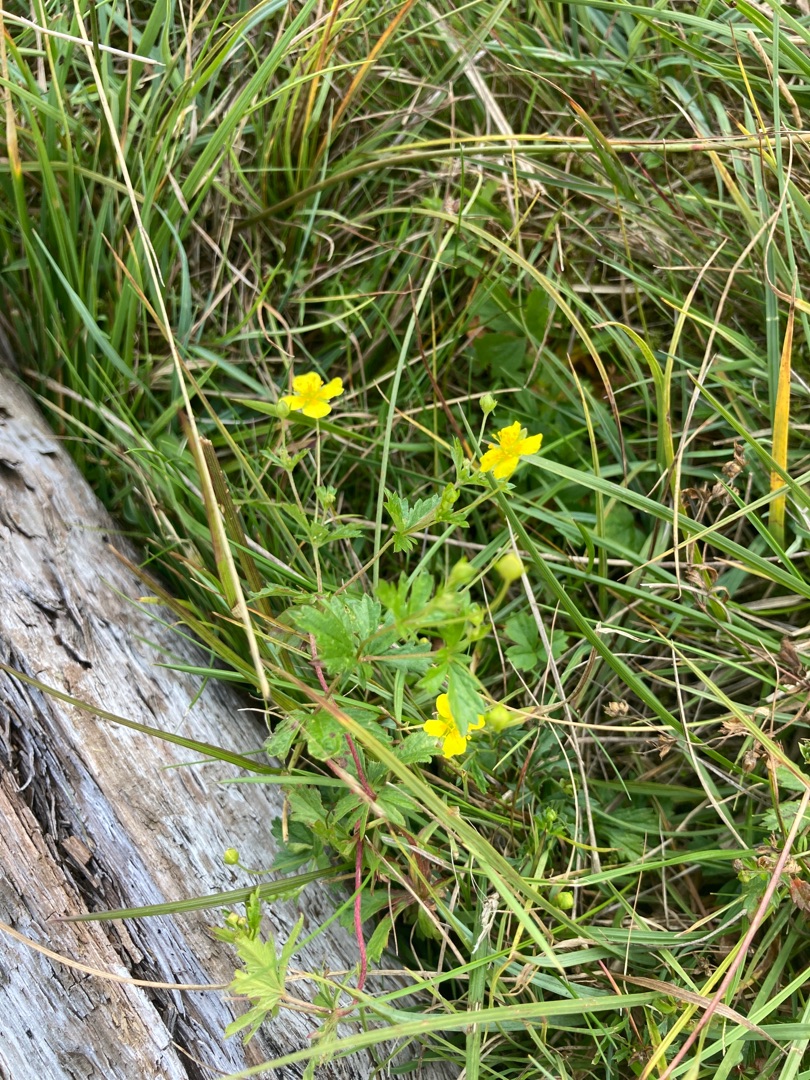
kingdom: Plantae
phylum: Tracheophyta
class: Magnoliopsida
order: Rosales
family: Rosaceae
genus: Potentilla
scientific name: Potentilla erecta
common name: Tormentil
